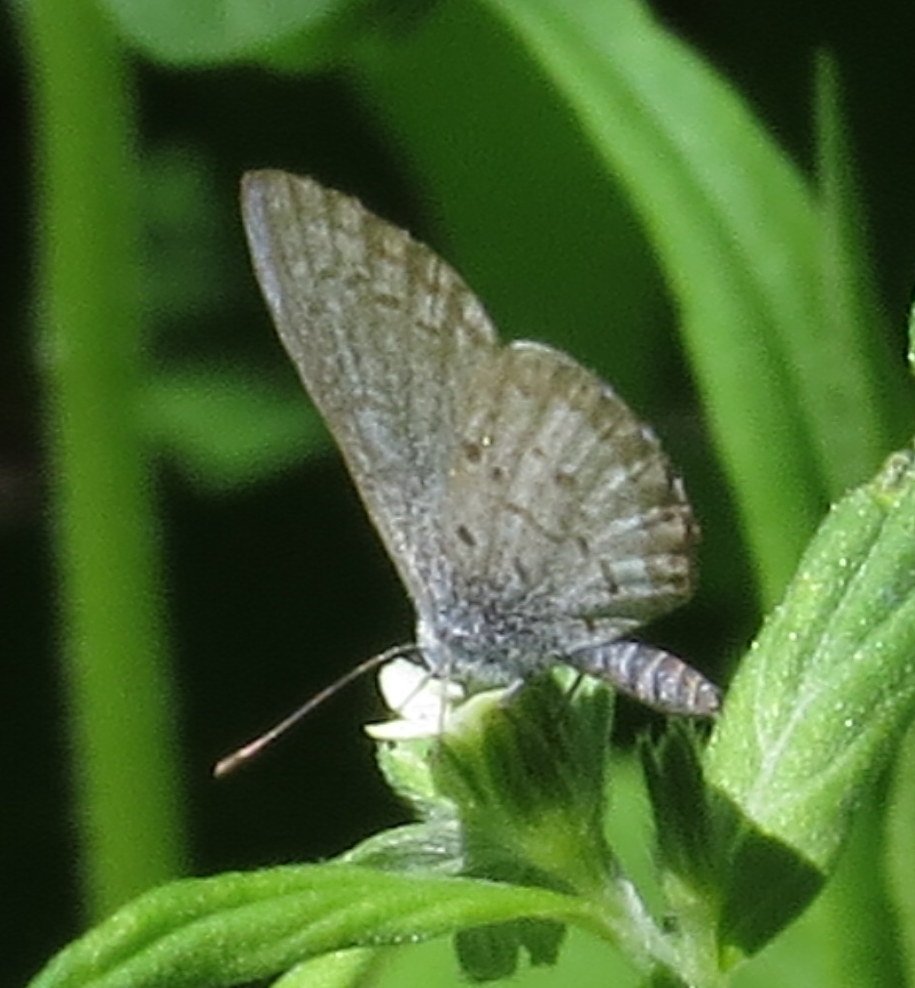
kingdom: Animalia
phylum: Arthropoda
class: Insecta
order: Lepidoptera
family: Lycaenidae
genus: Celastrina
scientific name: Celastrina
